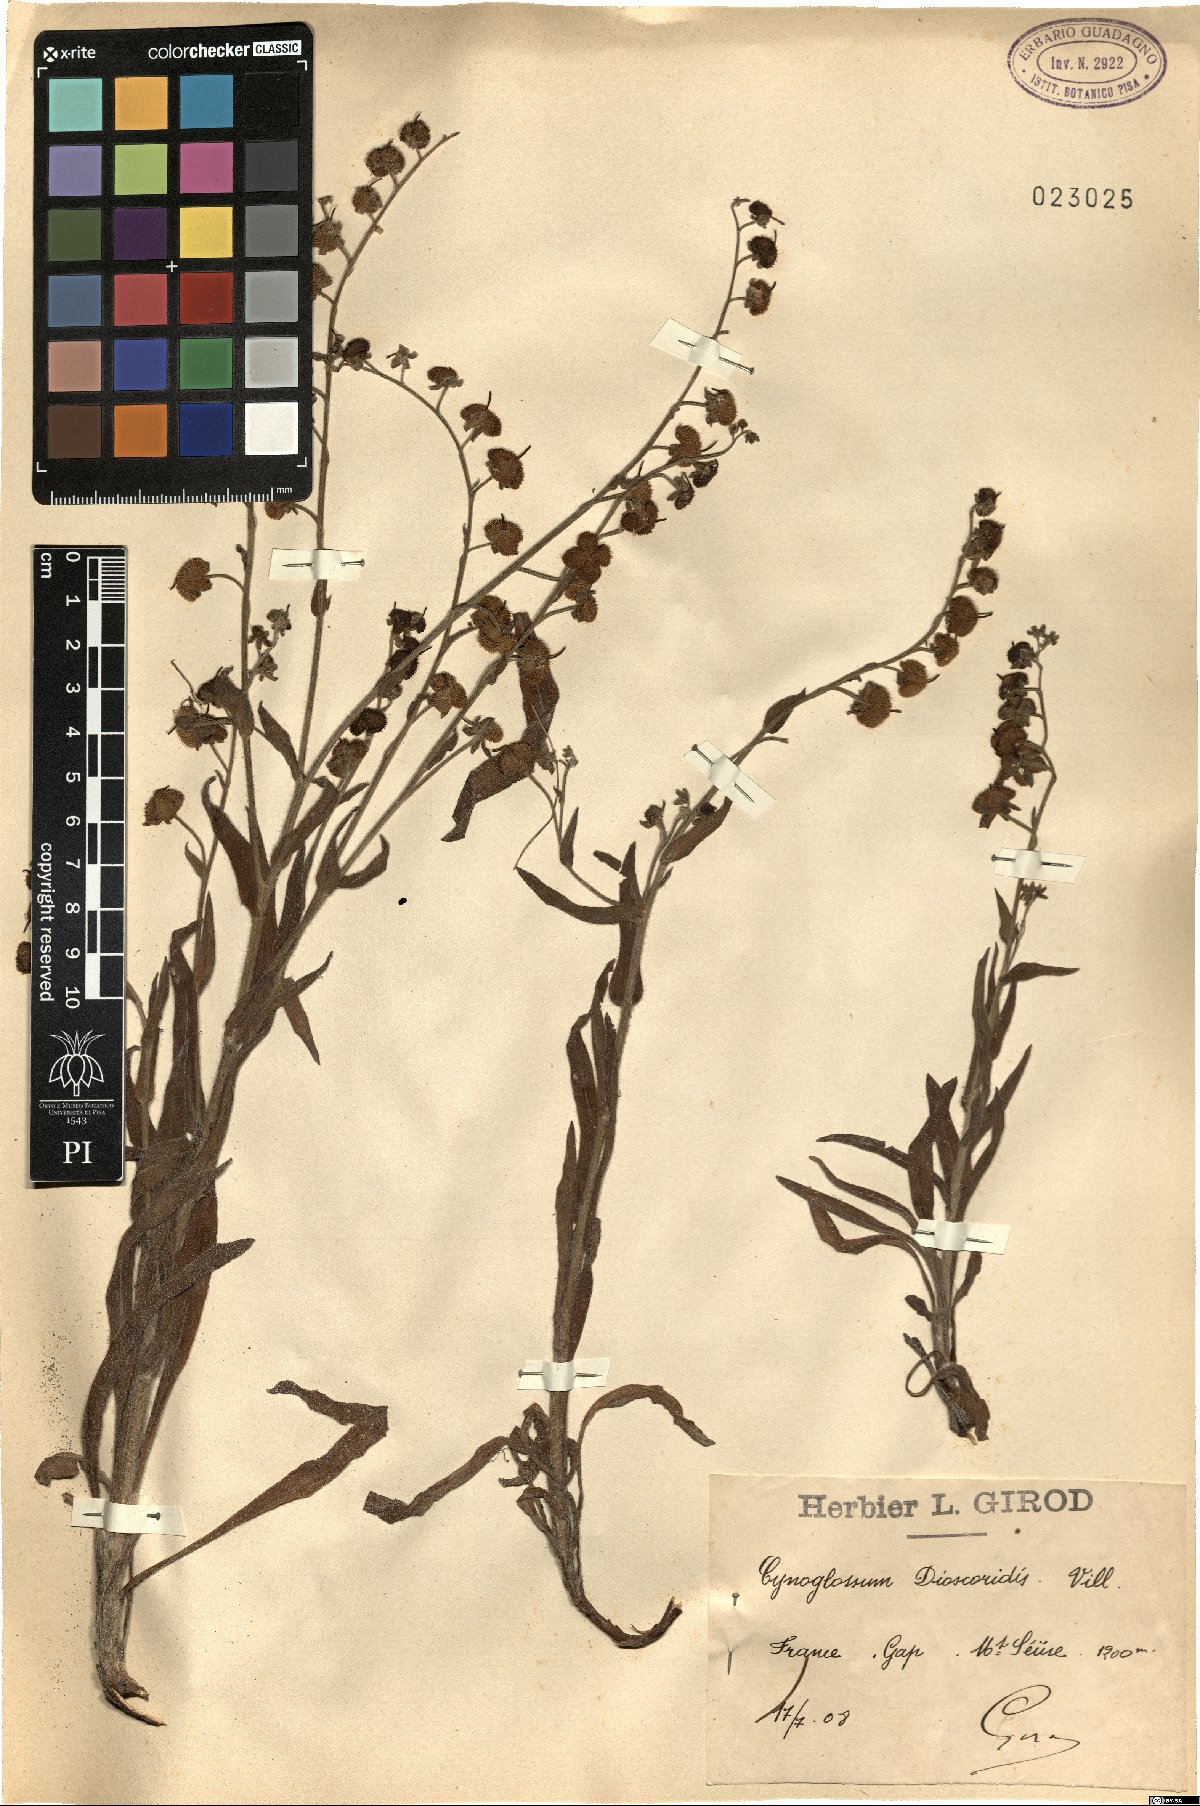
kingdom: Plantae
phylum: Tracheophyta
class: Magnoliopsida
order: Boraginales
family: Boraginaceae
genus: Cynoglossum
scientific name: Cynoglossum dioscoridis
